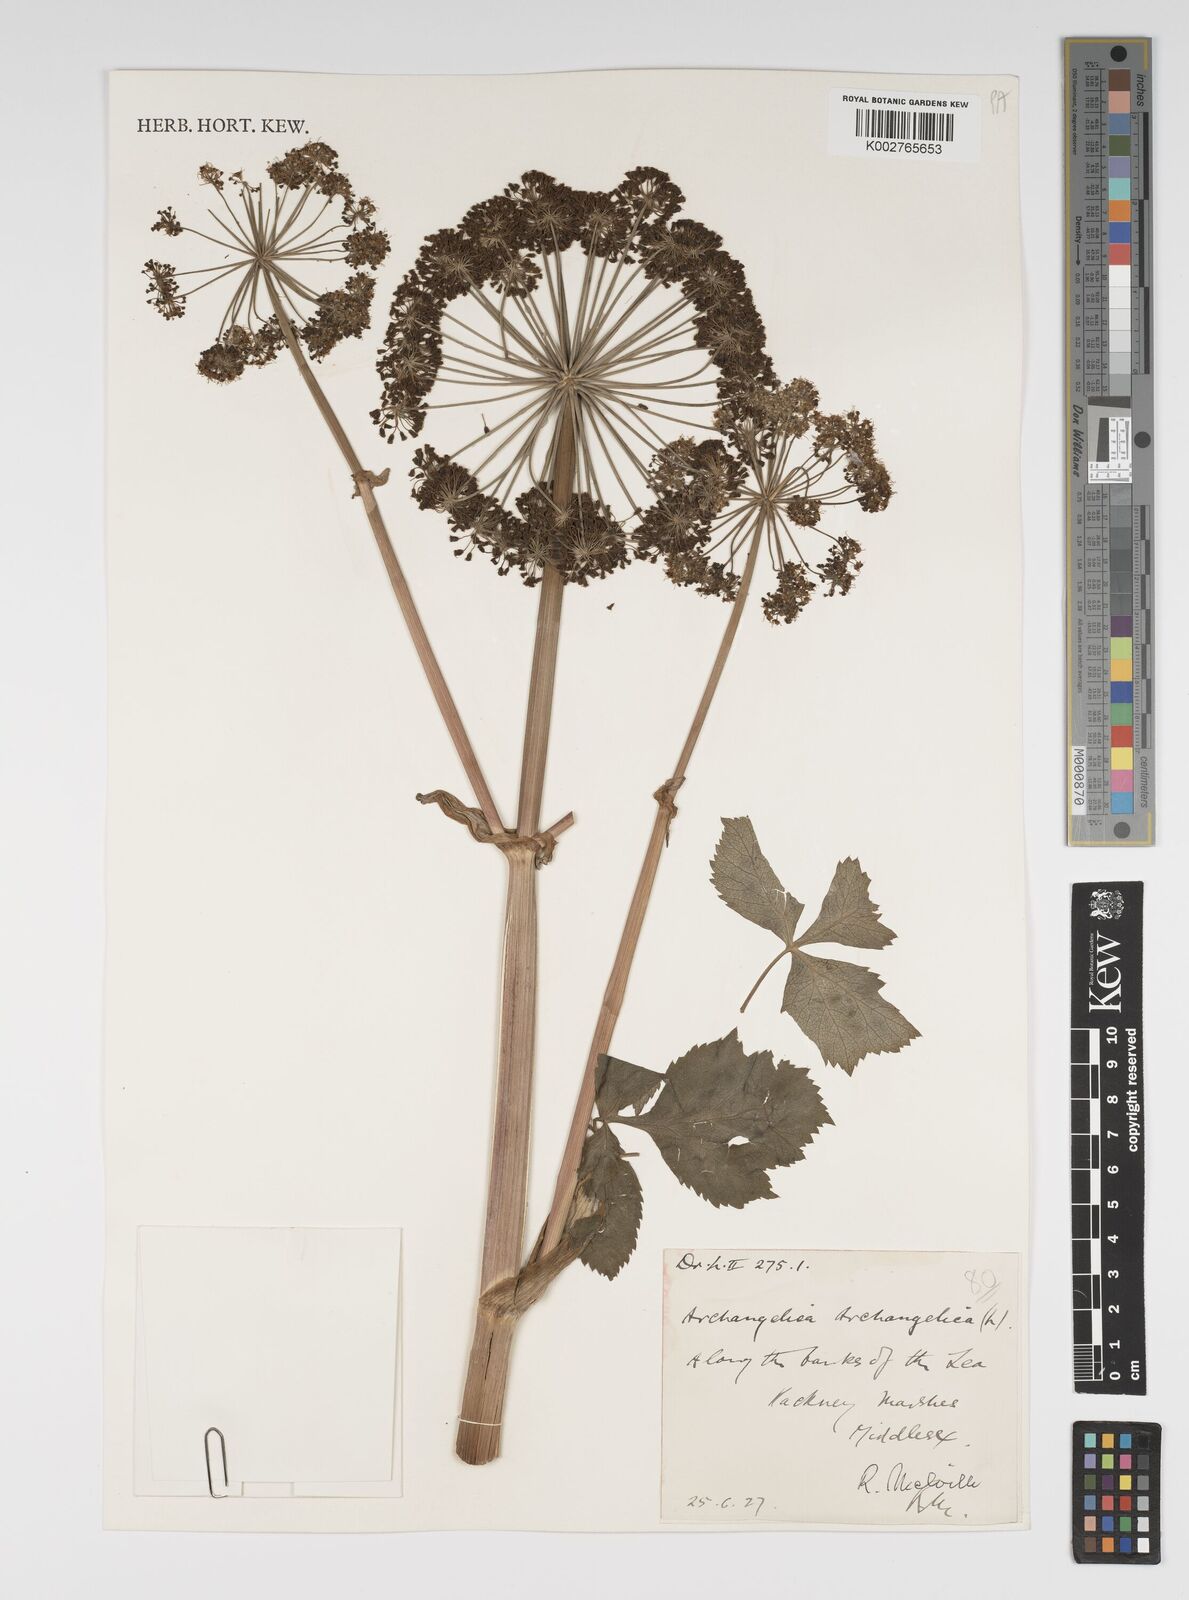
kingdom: Plantae
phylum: Tracheophyta
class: Magnoliopsida
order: Apiales
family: Apiaceae
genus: Angelica
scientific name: Angelica archangelica
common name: Garden angelica
